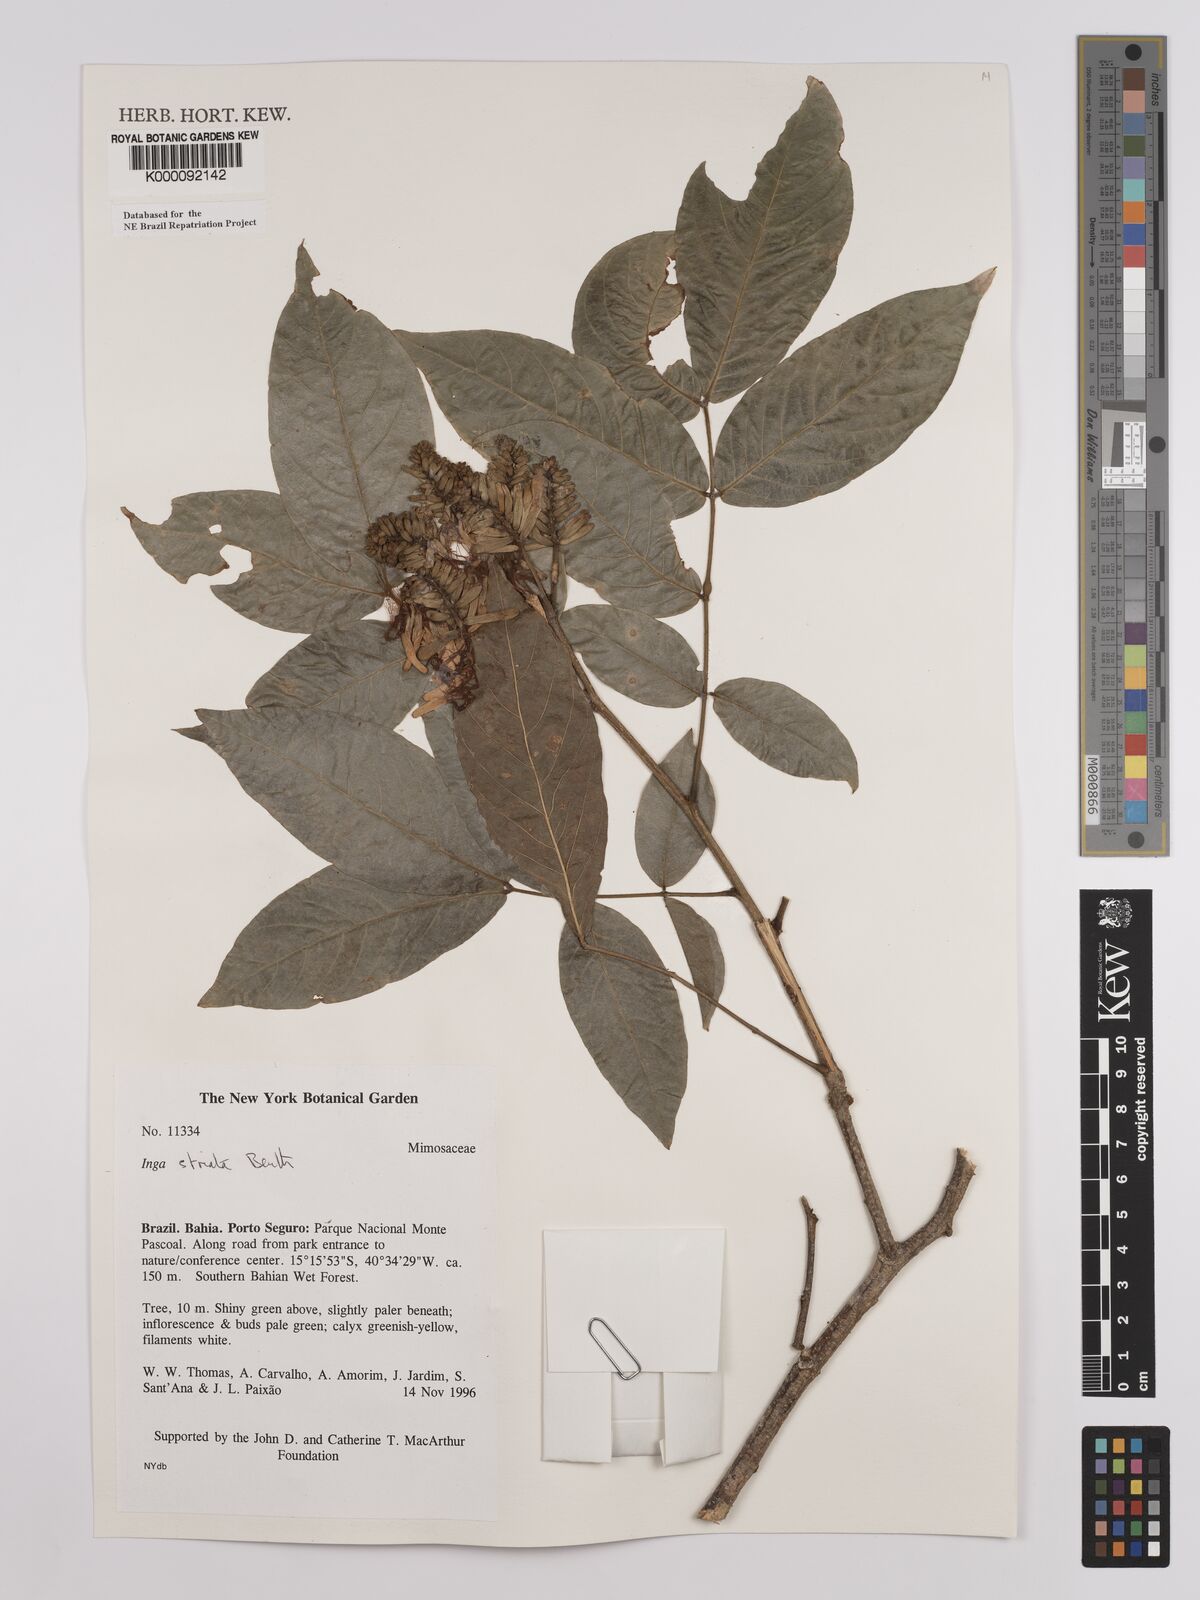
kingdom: Plantae
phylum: Tracheophyta
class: Magnoliopsida
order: Fabales
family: Fabaceae
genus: Inga
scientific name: Inga striata
